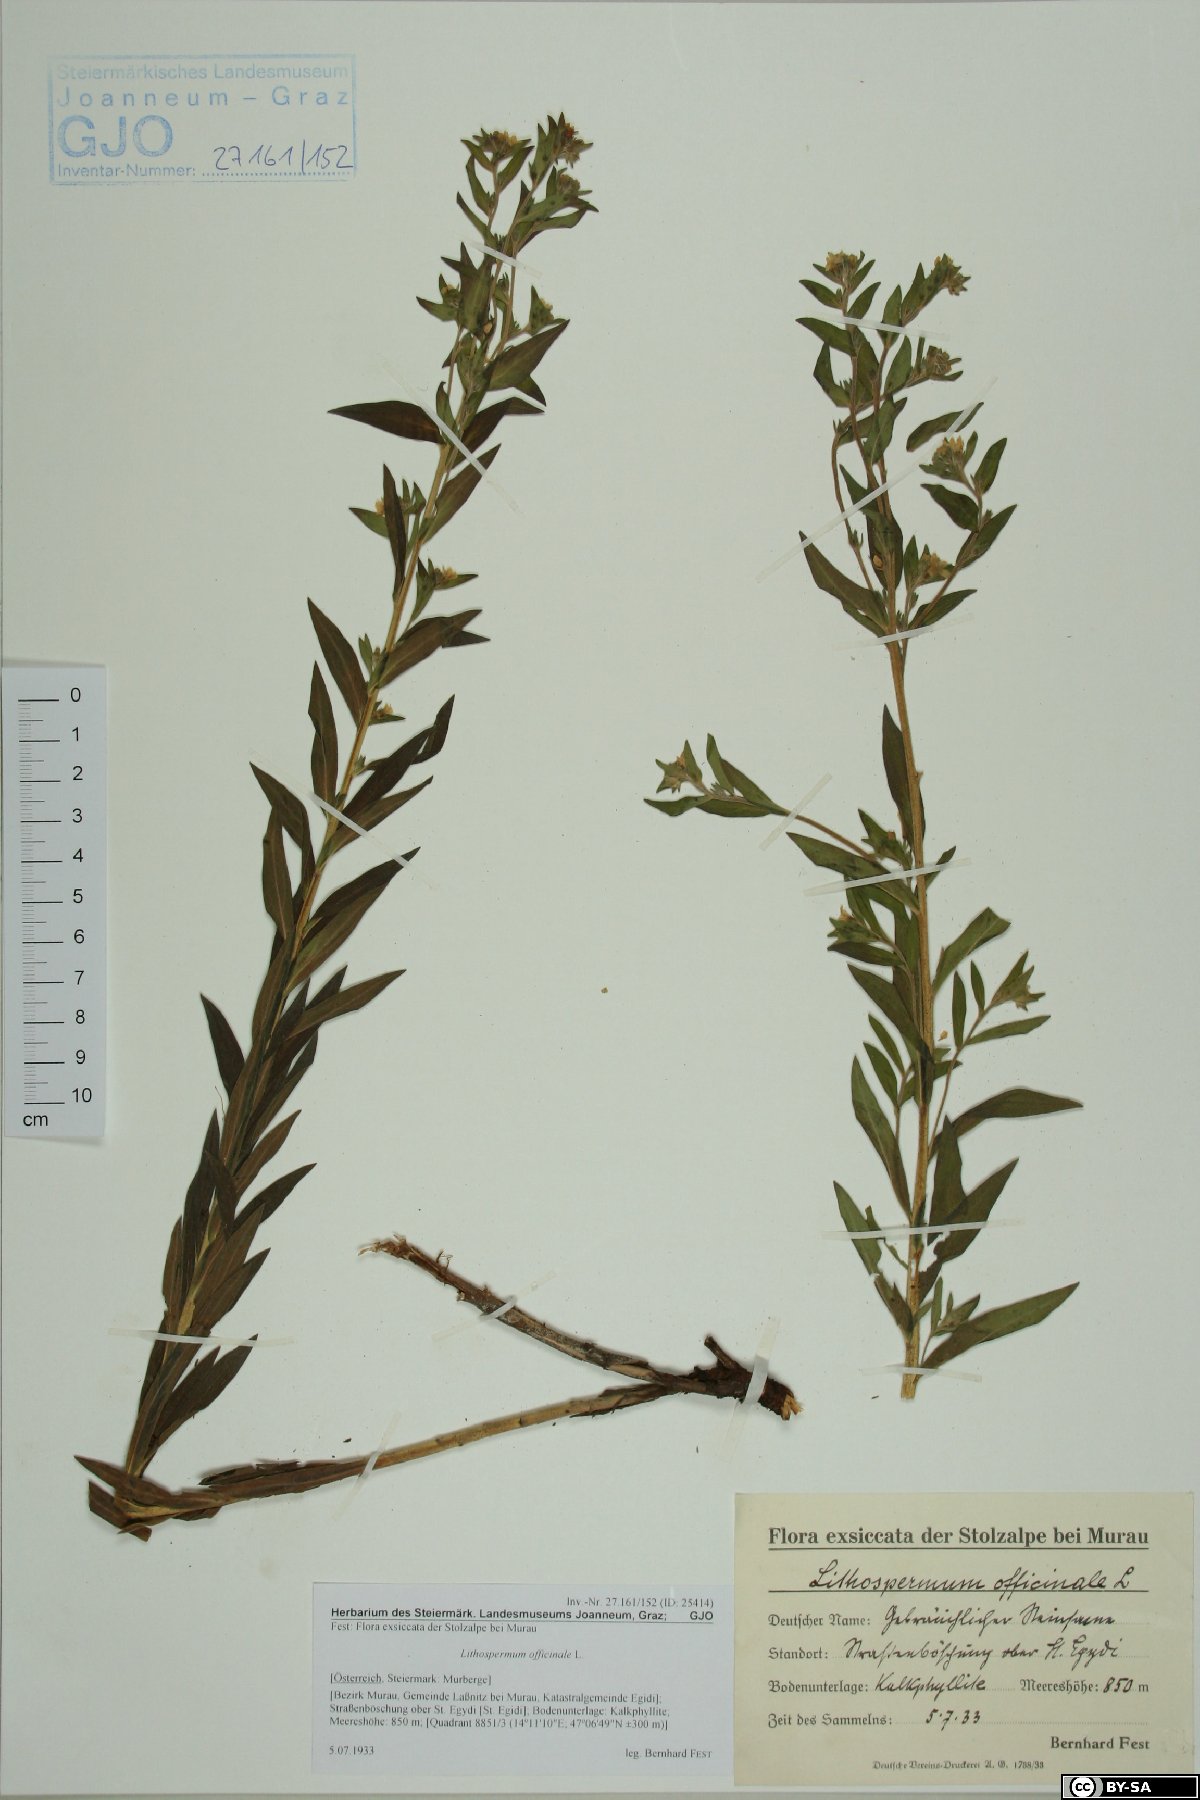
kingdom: Plantae
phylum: Tracheophyta
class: Magnoliopsida
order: Boraginales
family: Boraginaceae
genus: Lithospermum
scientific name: Lithospermum officinale
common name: Common gromwell
